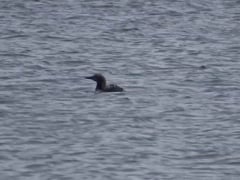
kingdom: Animalia
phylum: Chordata
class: Aves
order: Gaviiformes
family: Gaviidae
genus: Gavia
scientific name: Gavia arctica
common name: Black-throated loon
